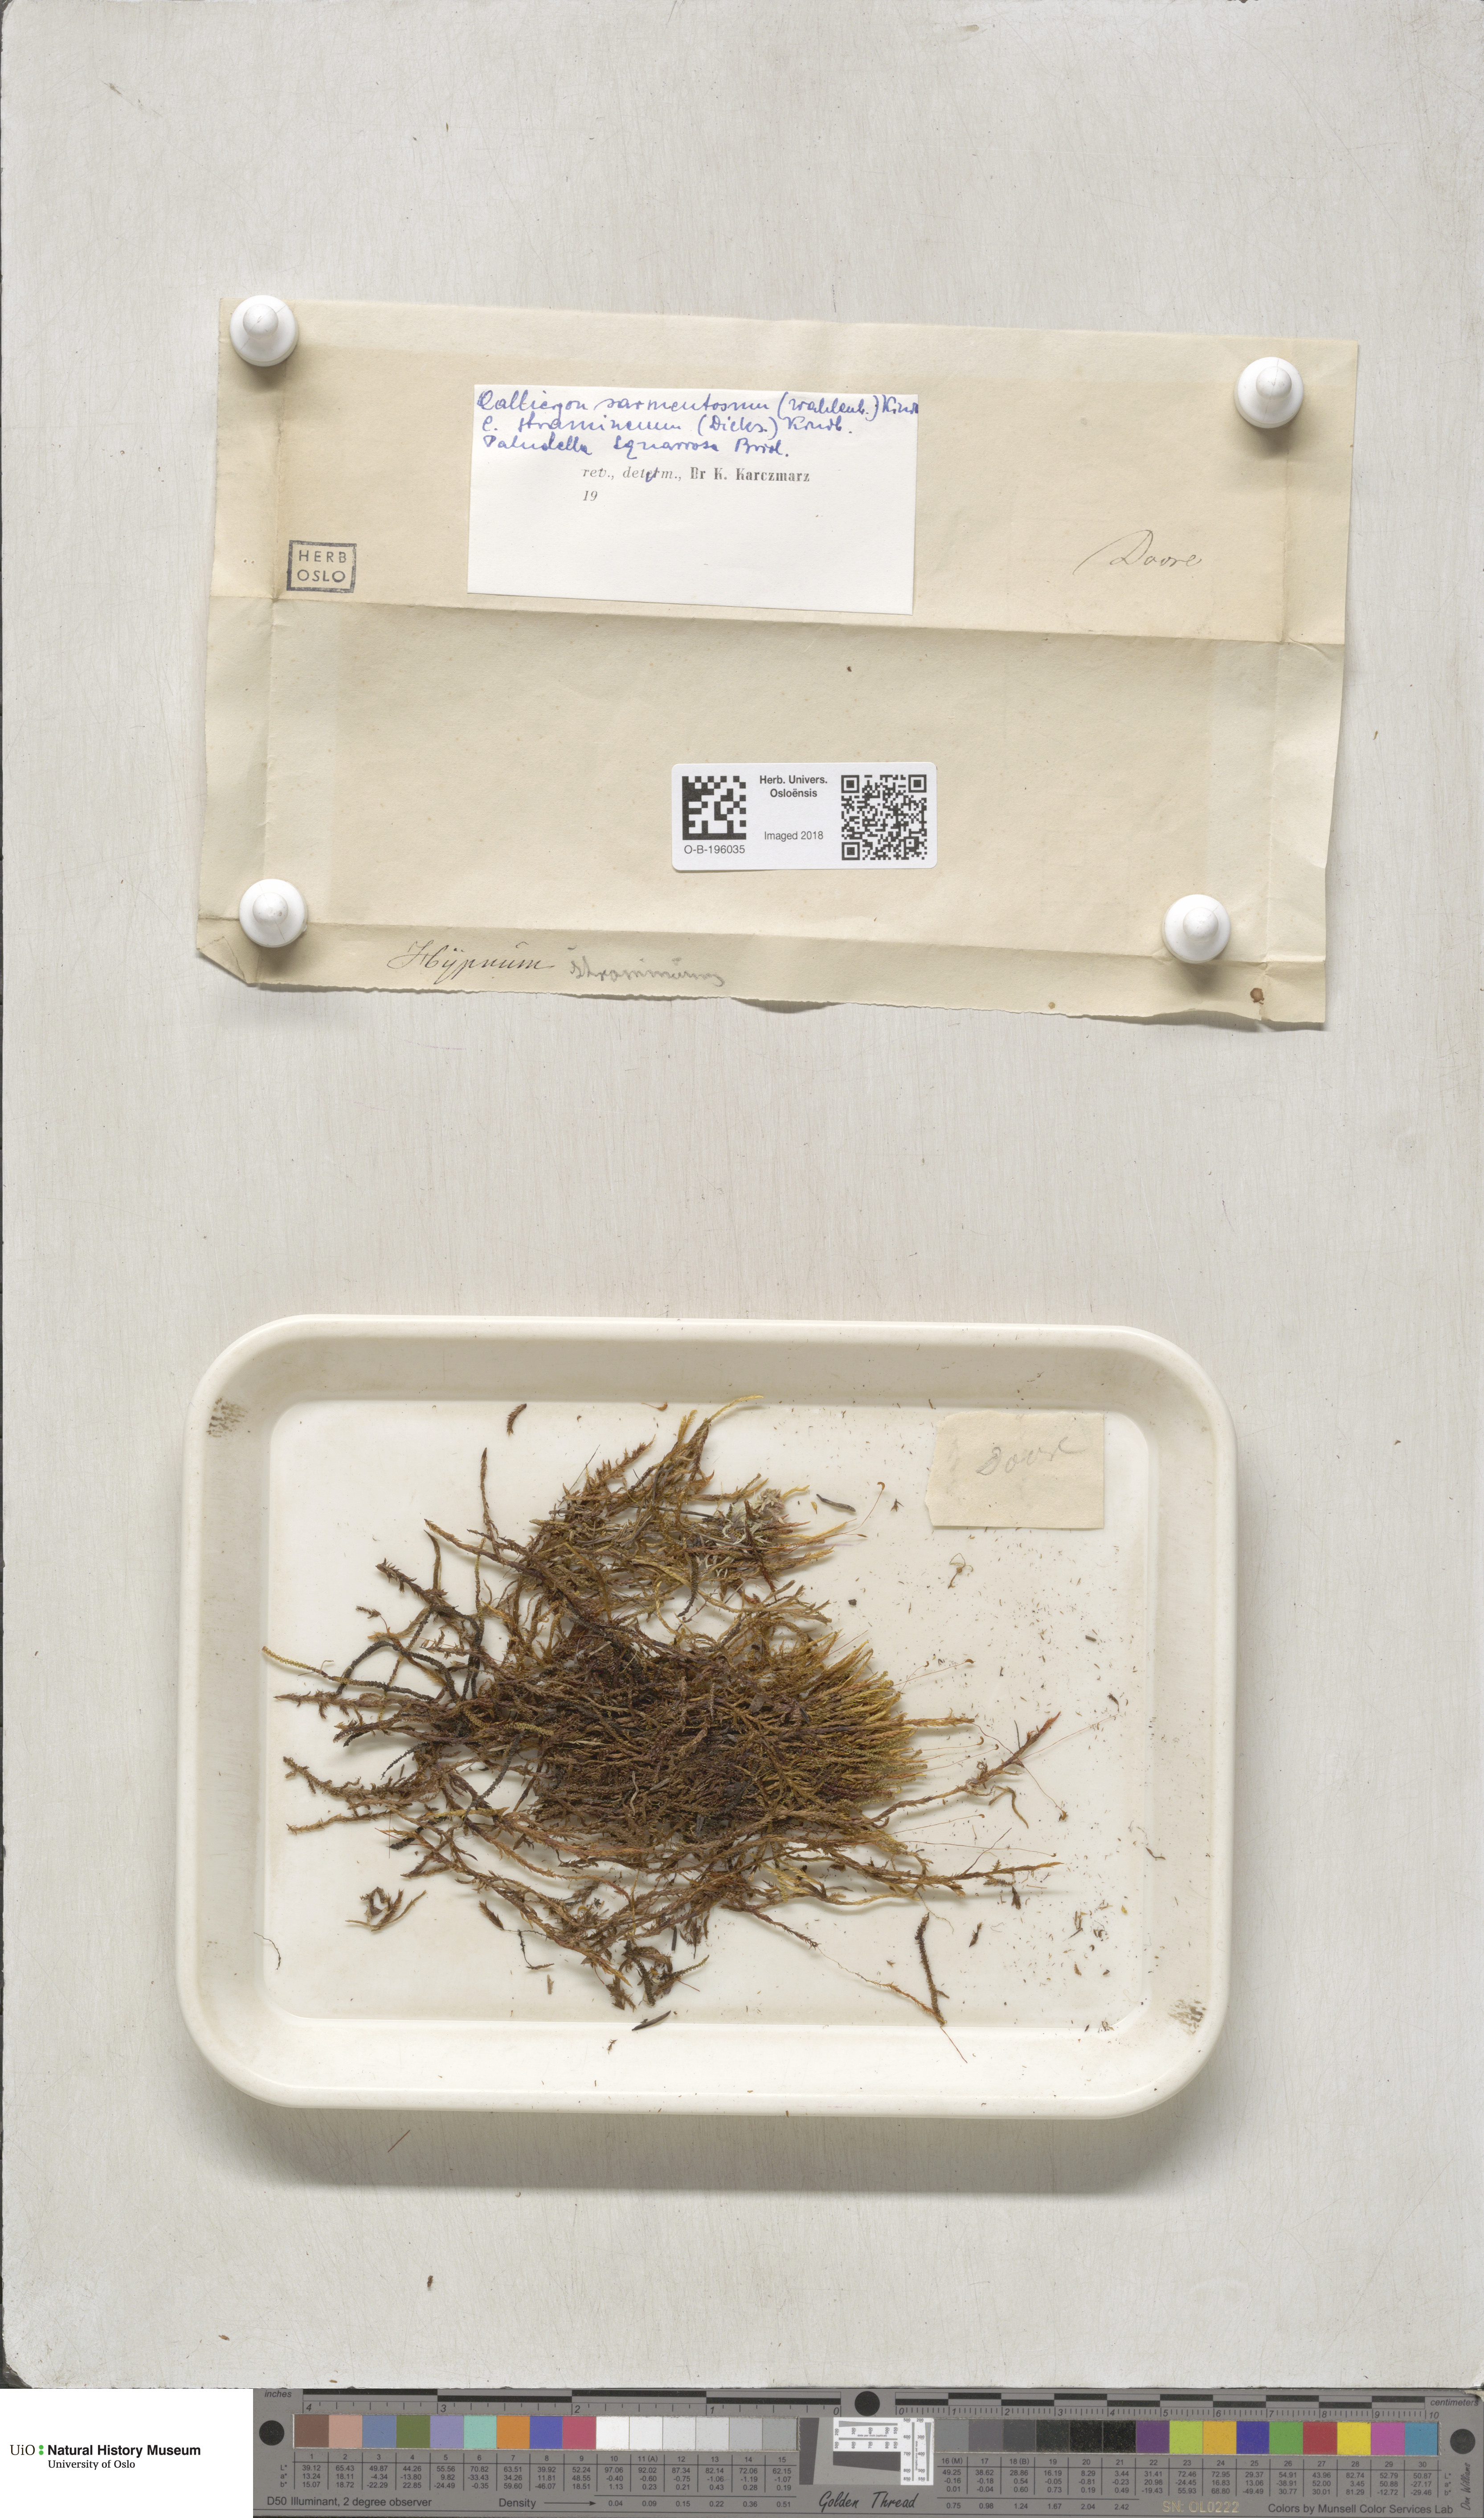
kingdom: Plantae
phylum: Bryophyta
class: Bryopsida
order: Hypnales
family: Calliergonaceae
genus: Sarmentypnum
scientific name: Sarmentypnum sarmentosum
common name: Twiggy spoon moss
